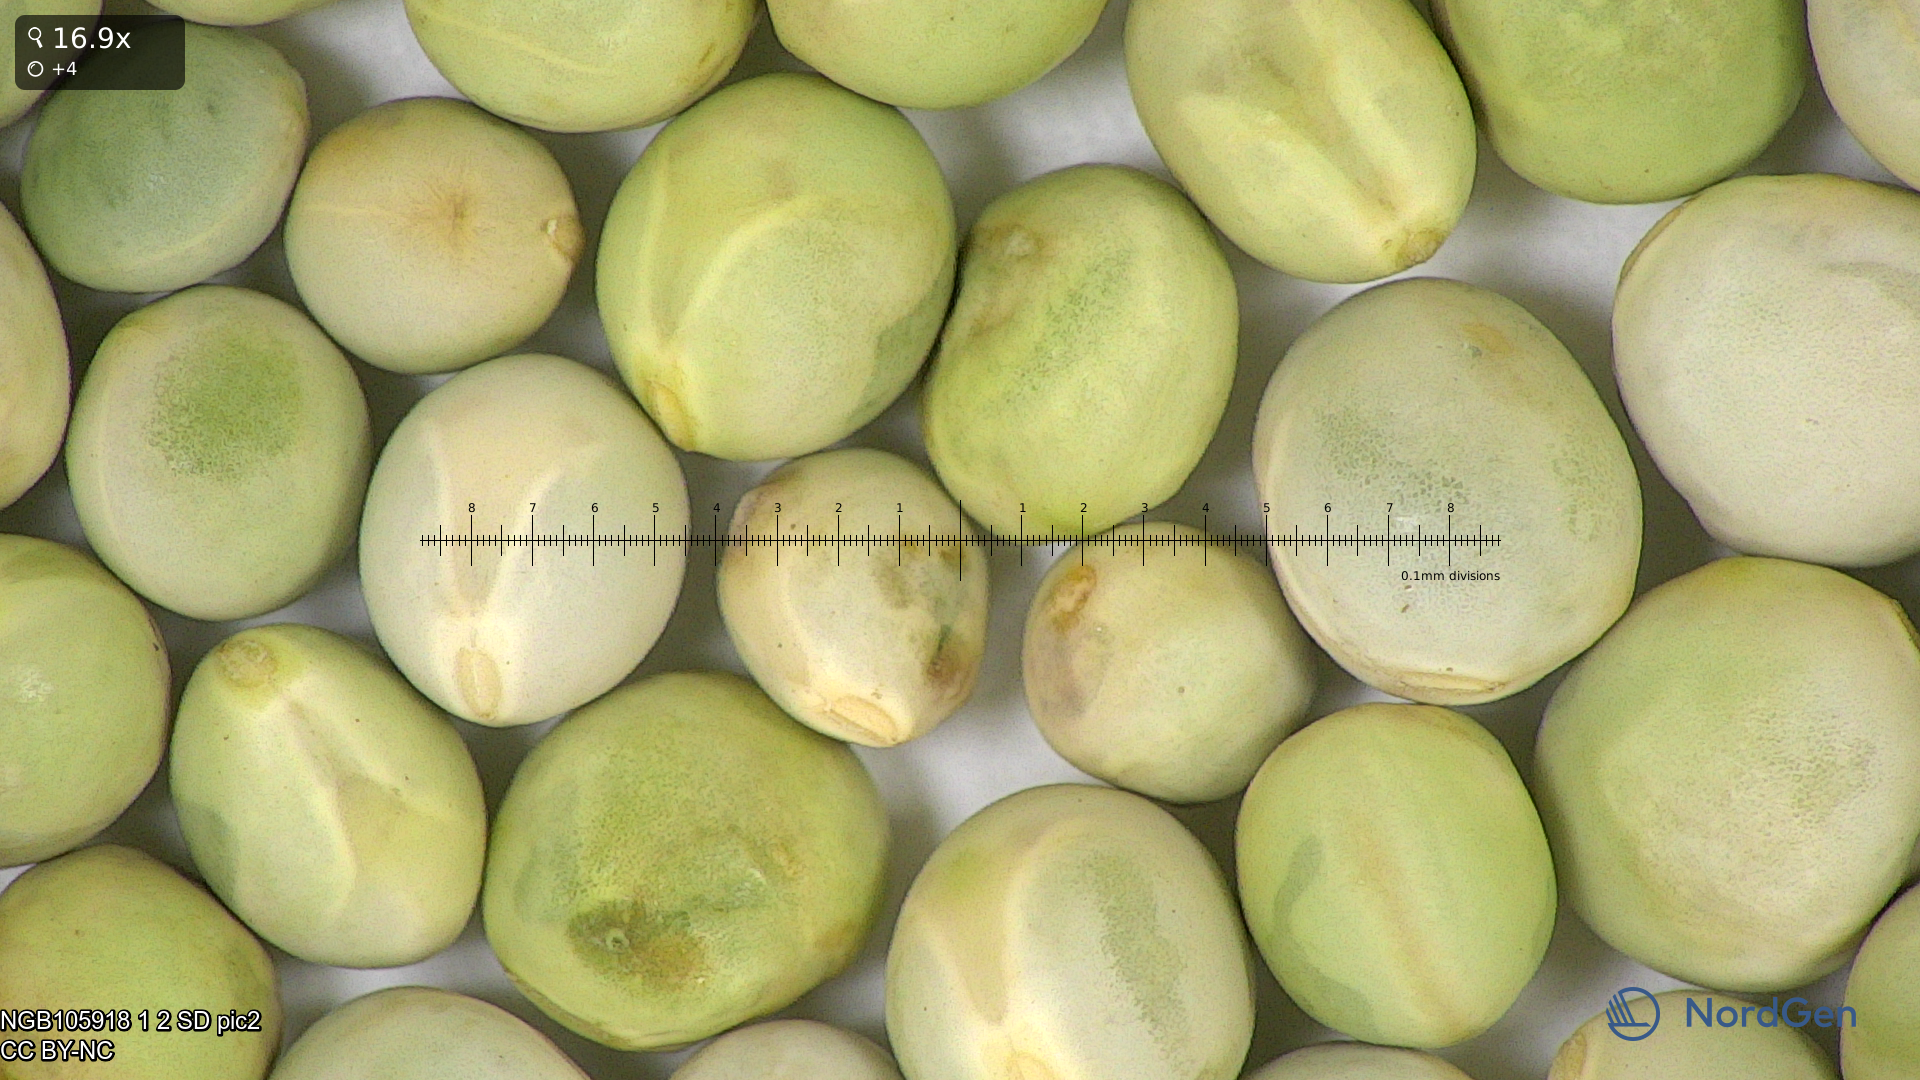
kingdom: Plantae
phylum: Tracheophyta
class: Magnoliopsida
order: Fabales
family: Fabaceae
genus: Lathyrus
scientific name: Lathyrus oleraceus
